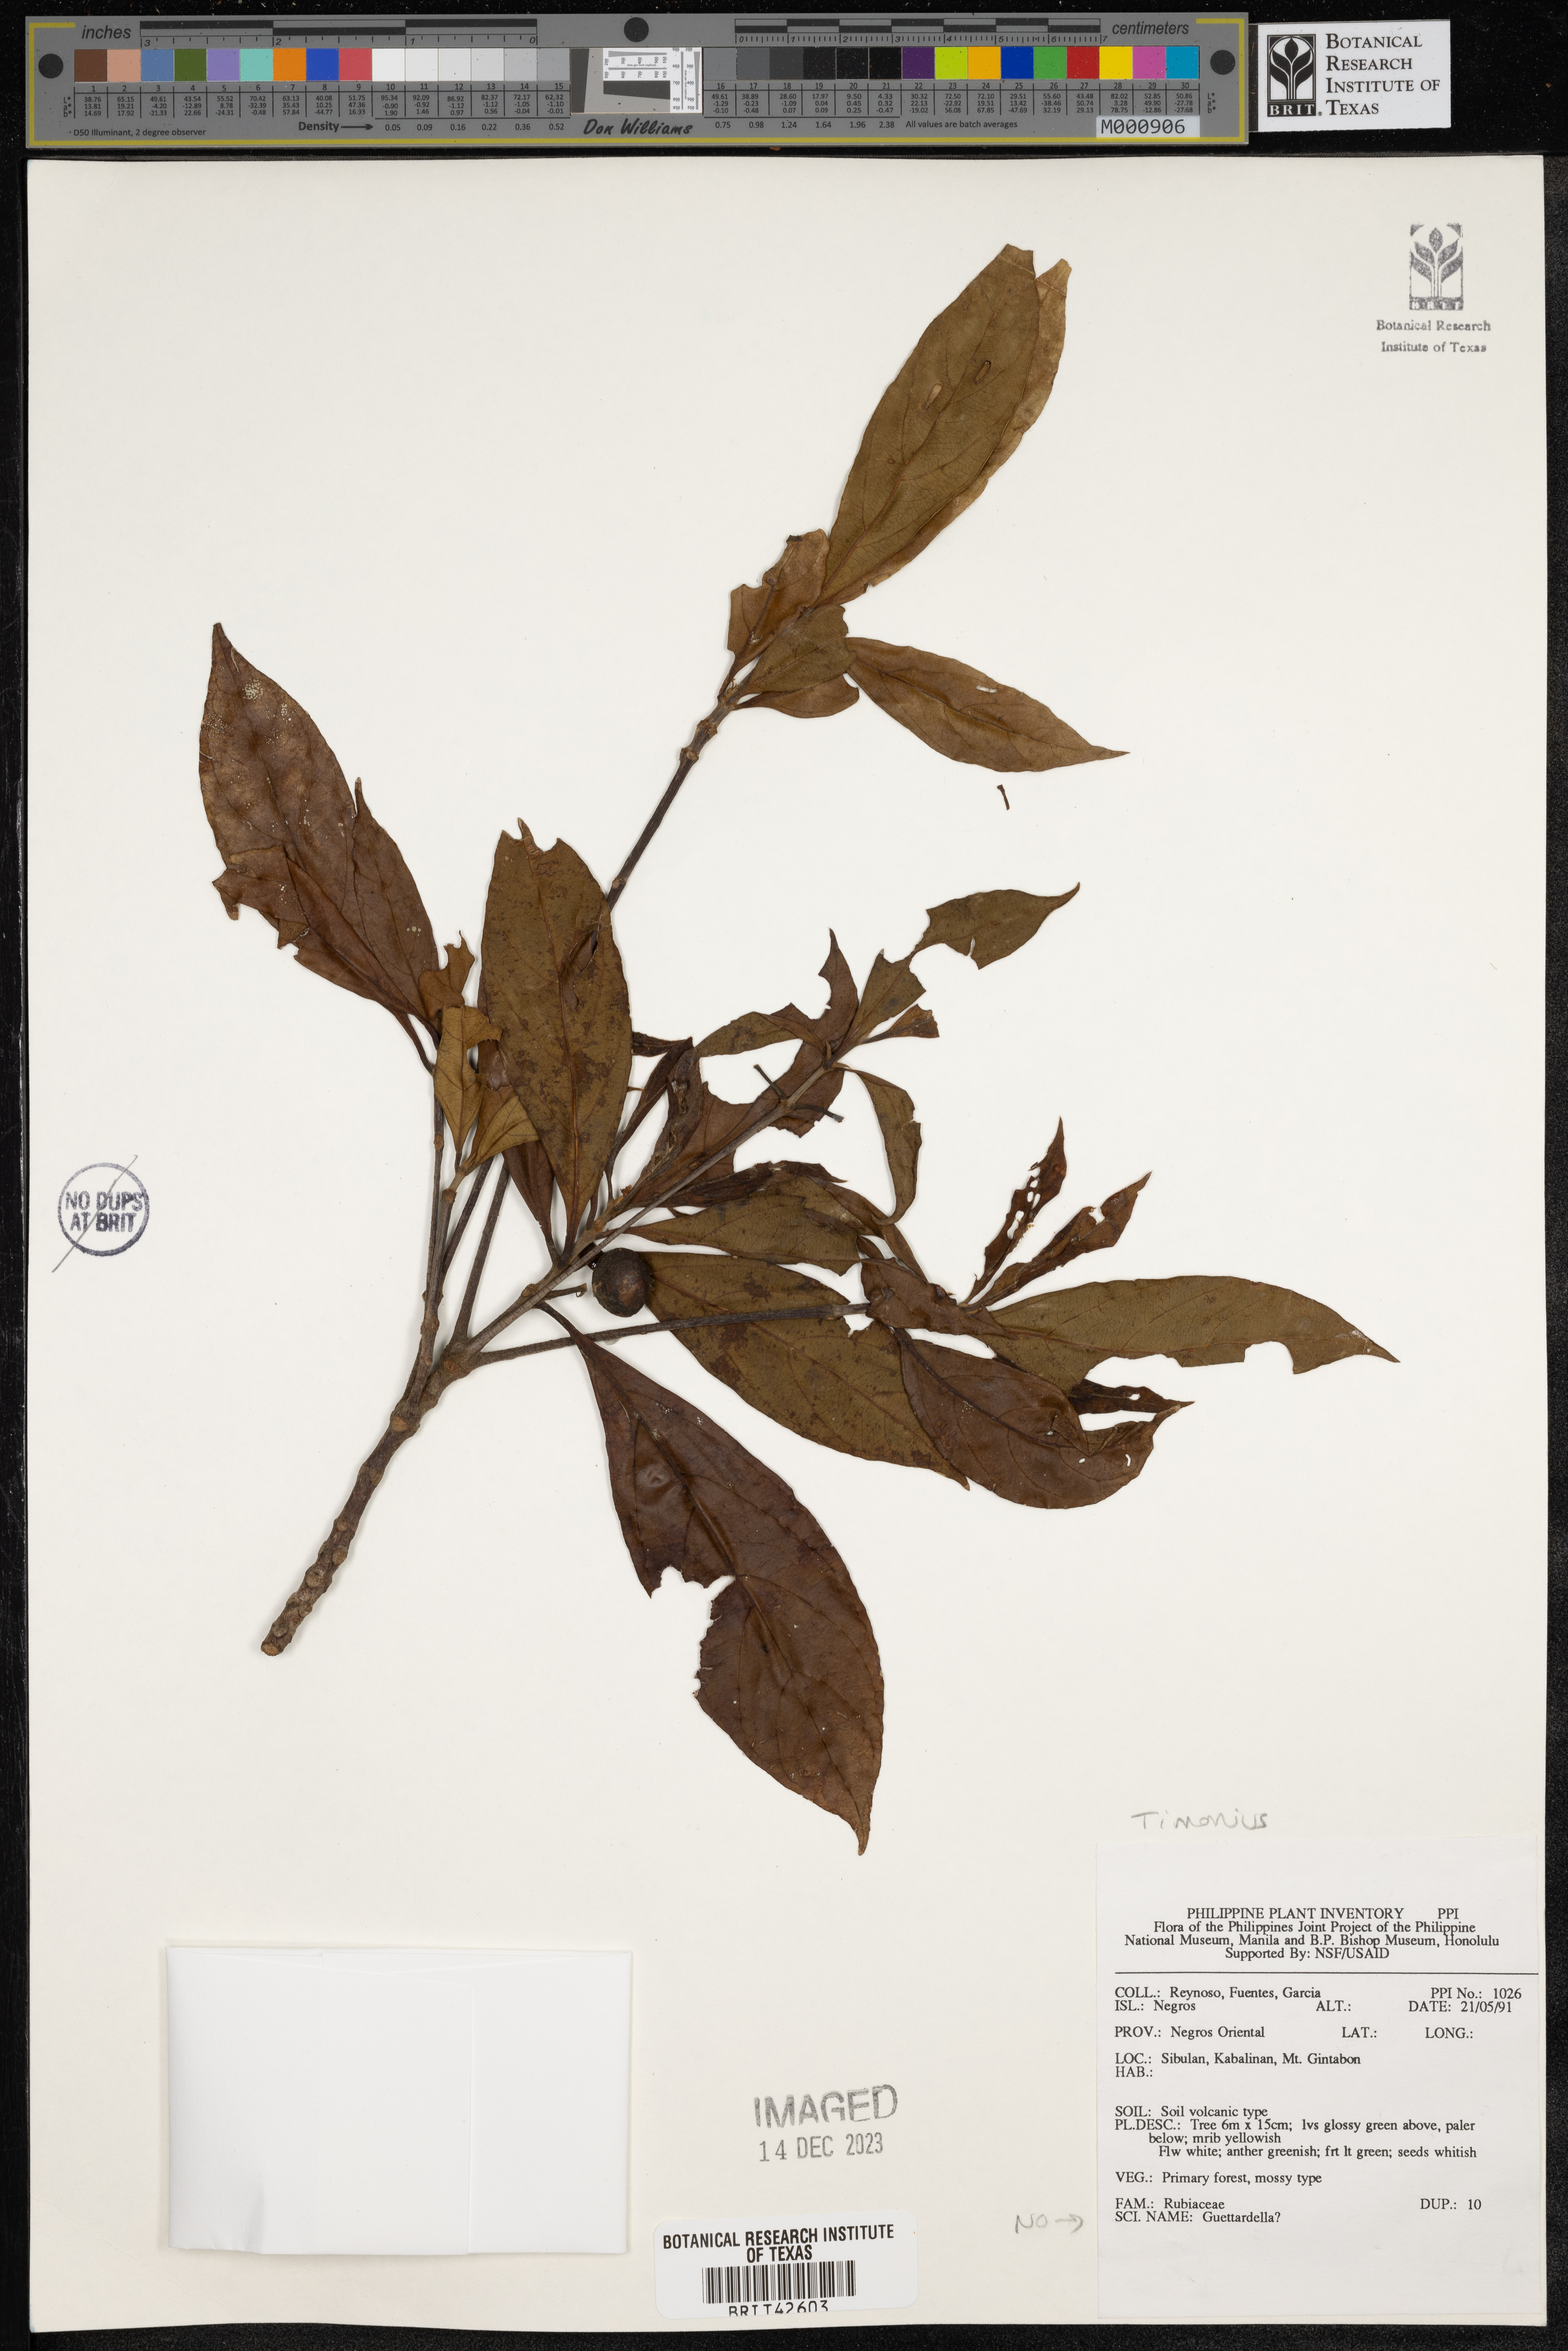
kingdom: Plantae
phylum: Tracheophyta
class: Magnoliopsida
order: Gentianales
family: Rubiaceae
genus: Timonius
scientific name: Timonius
